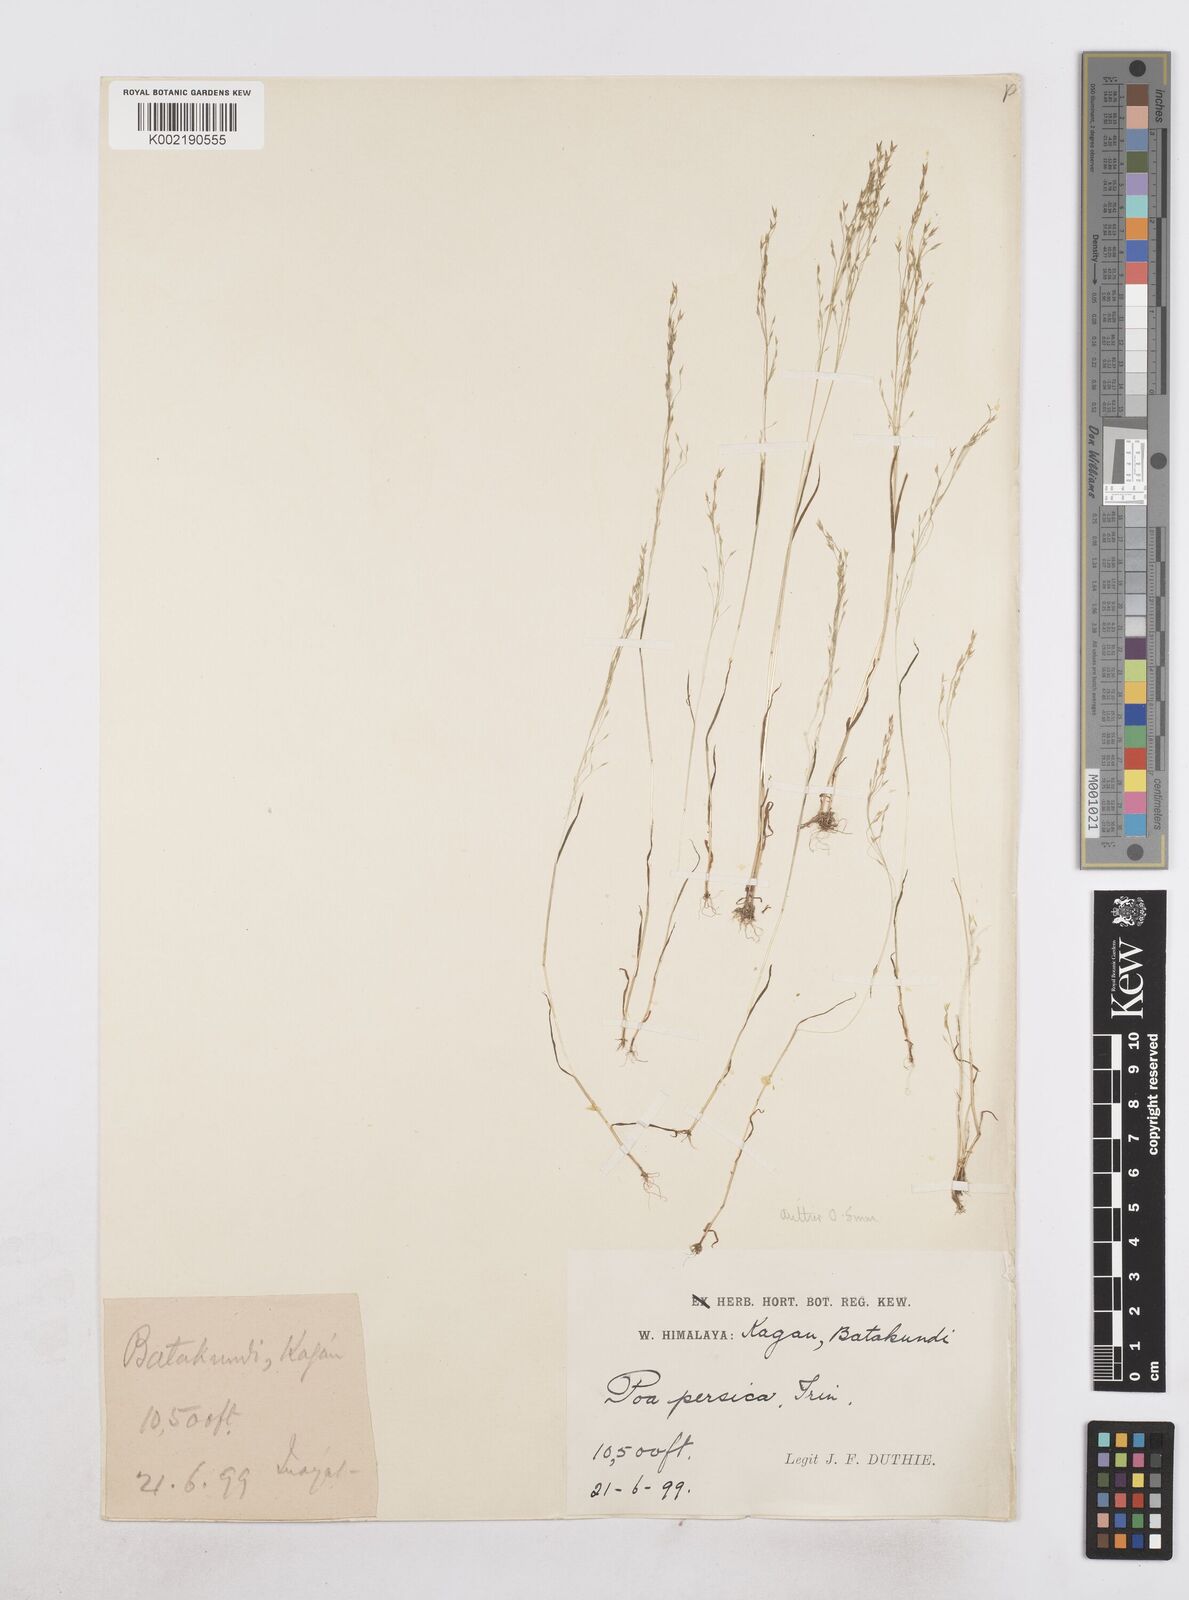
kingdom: Plantae
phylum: Tracheophyta
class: Liliopsida
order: Poales
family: Poaceae
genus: Poa
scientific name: Poa diaphora
